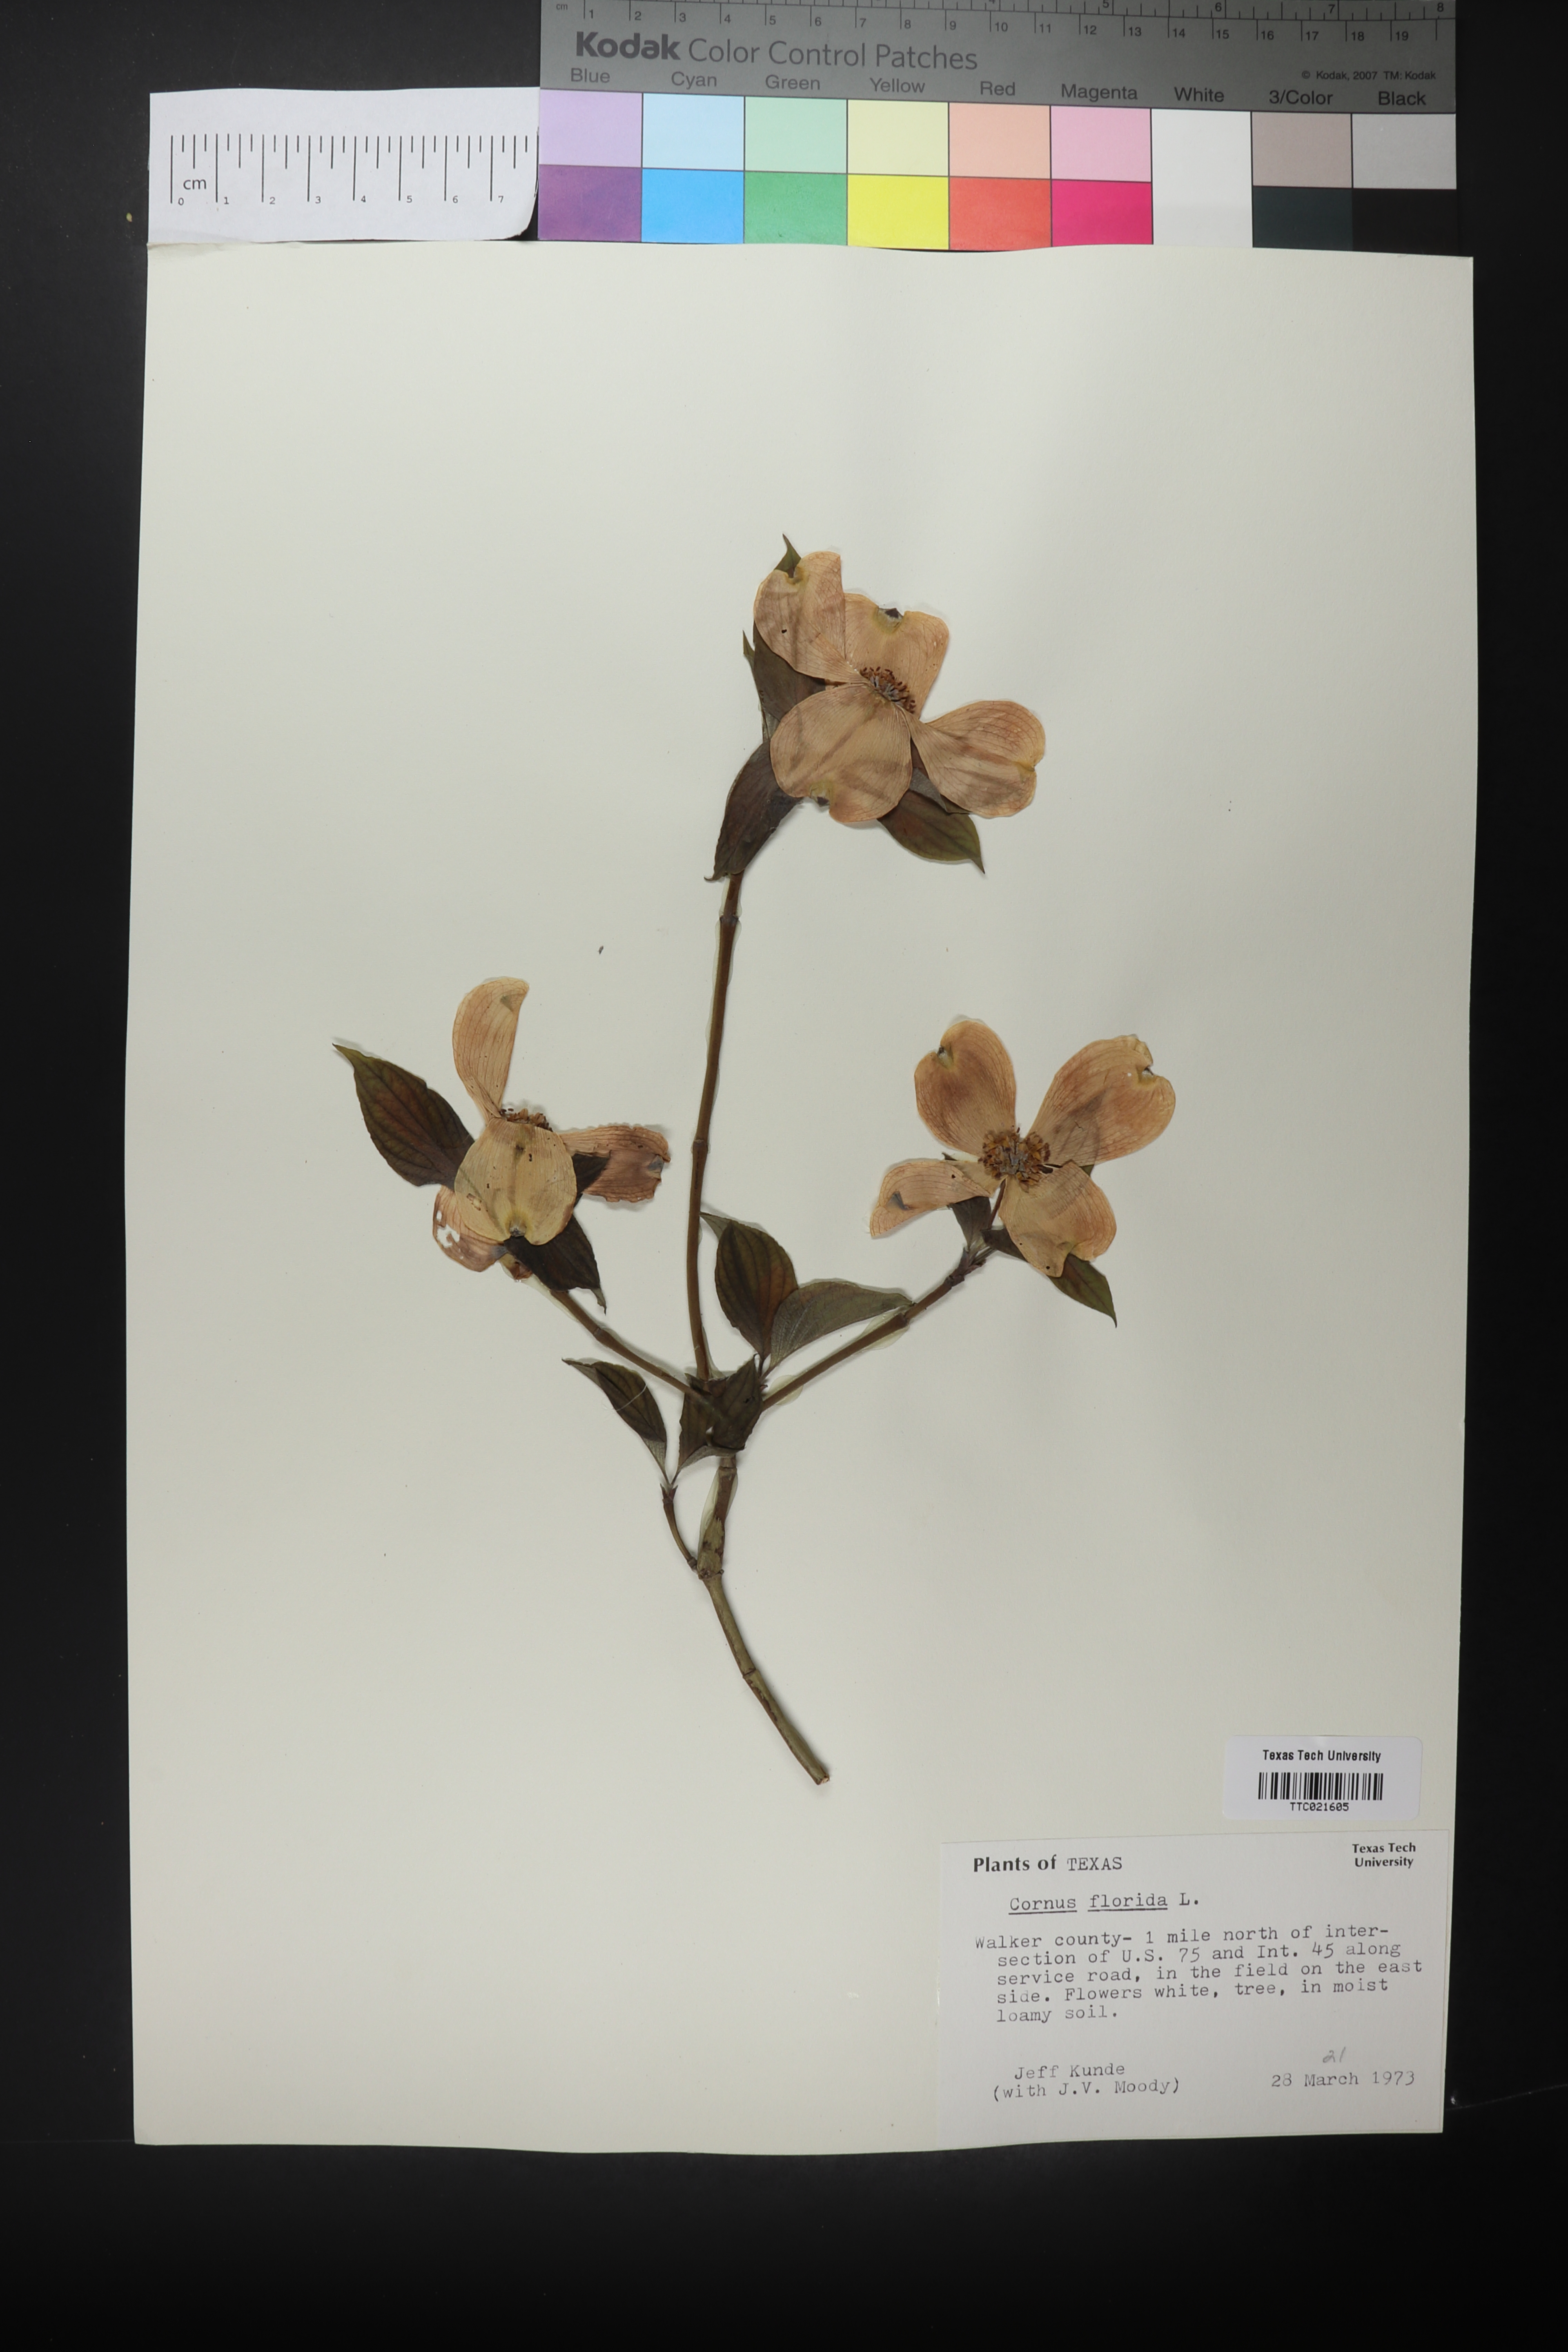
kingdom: Plantae
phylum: Tracheophyta
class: Magnoliopsida
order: Cornales
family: Cornaceae
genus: Cornus
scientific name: Cornus florida
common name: Flowering dogwood
